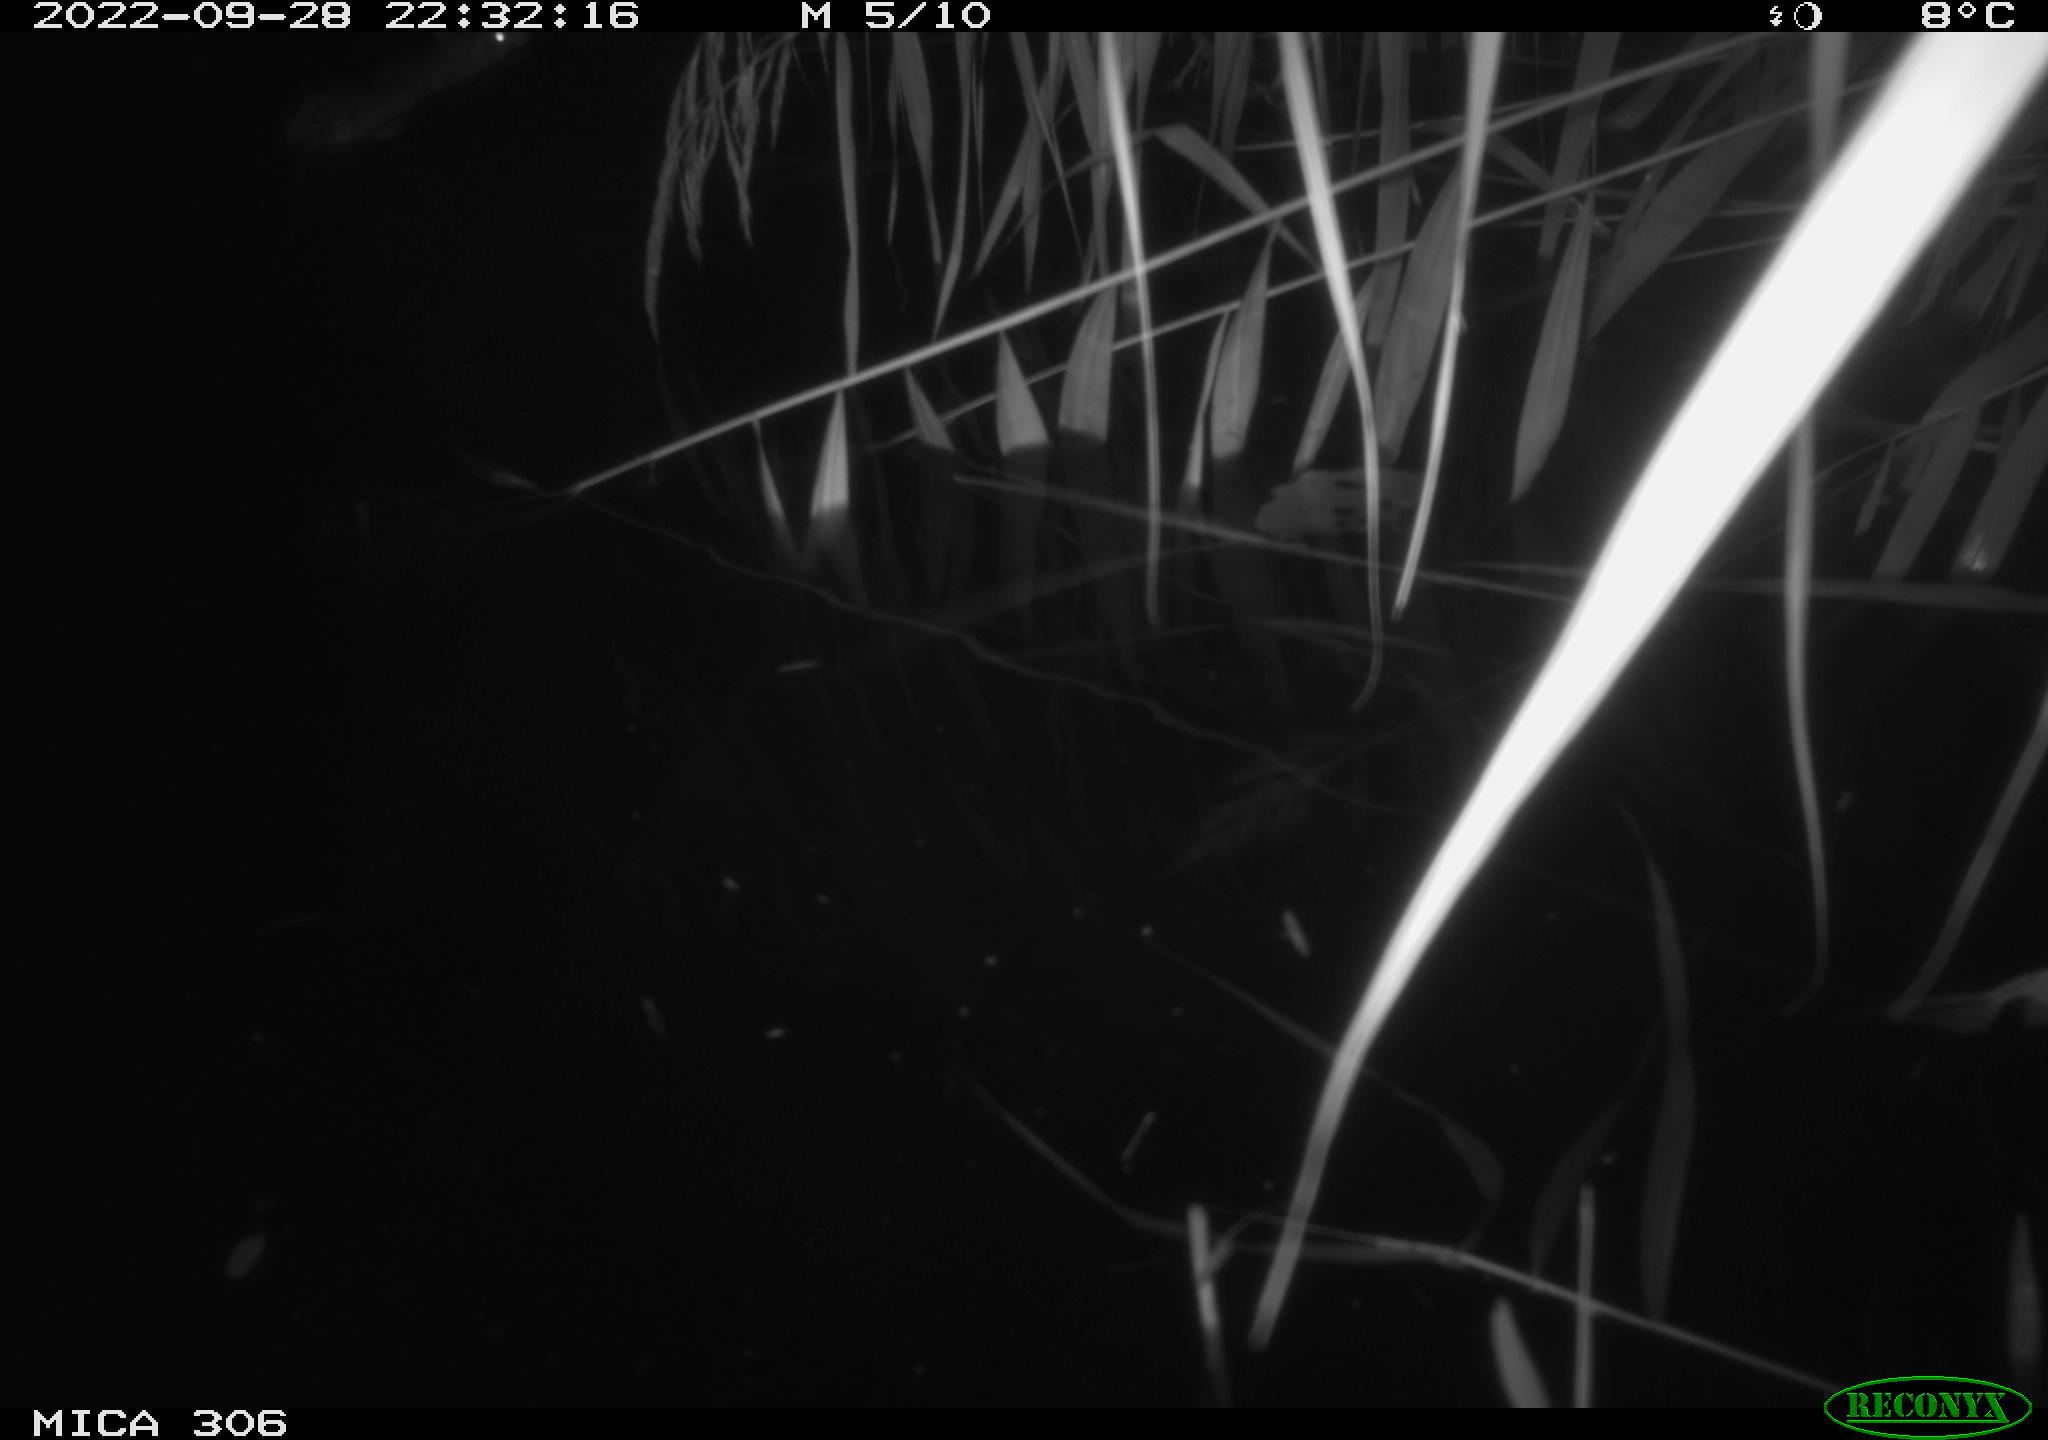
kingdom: Animalia
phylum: Chordata
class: Mammalia
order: Rodentia
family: Muridae
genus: Rattus
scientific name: Rattus norvegicus
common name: Brown rat
